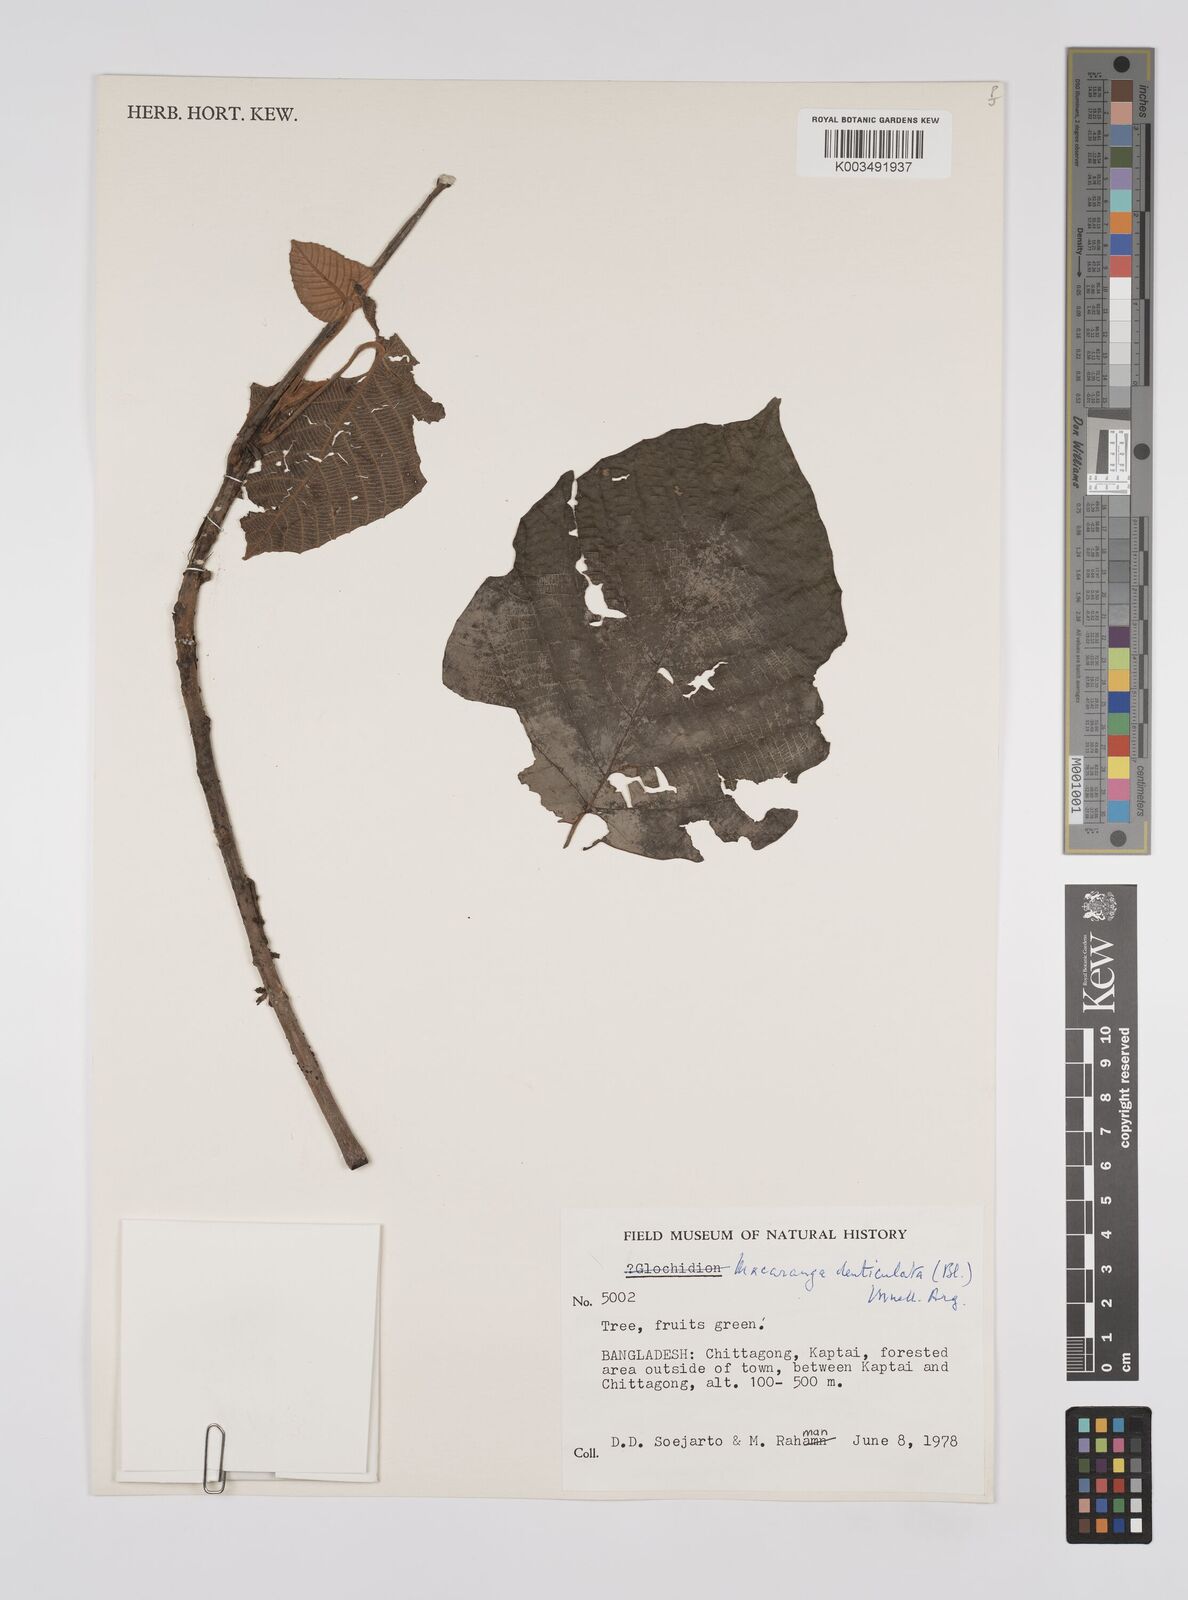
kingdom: Plantae
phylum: Tracheophyta
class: Magnoliopsida
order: Malpighiales
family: Euphorbiaceae
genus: Macaranga
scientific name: Macaranga denticulata
